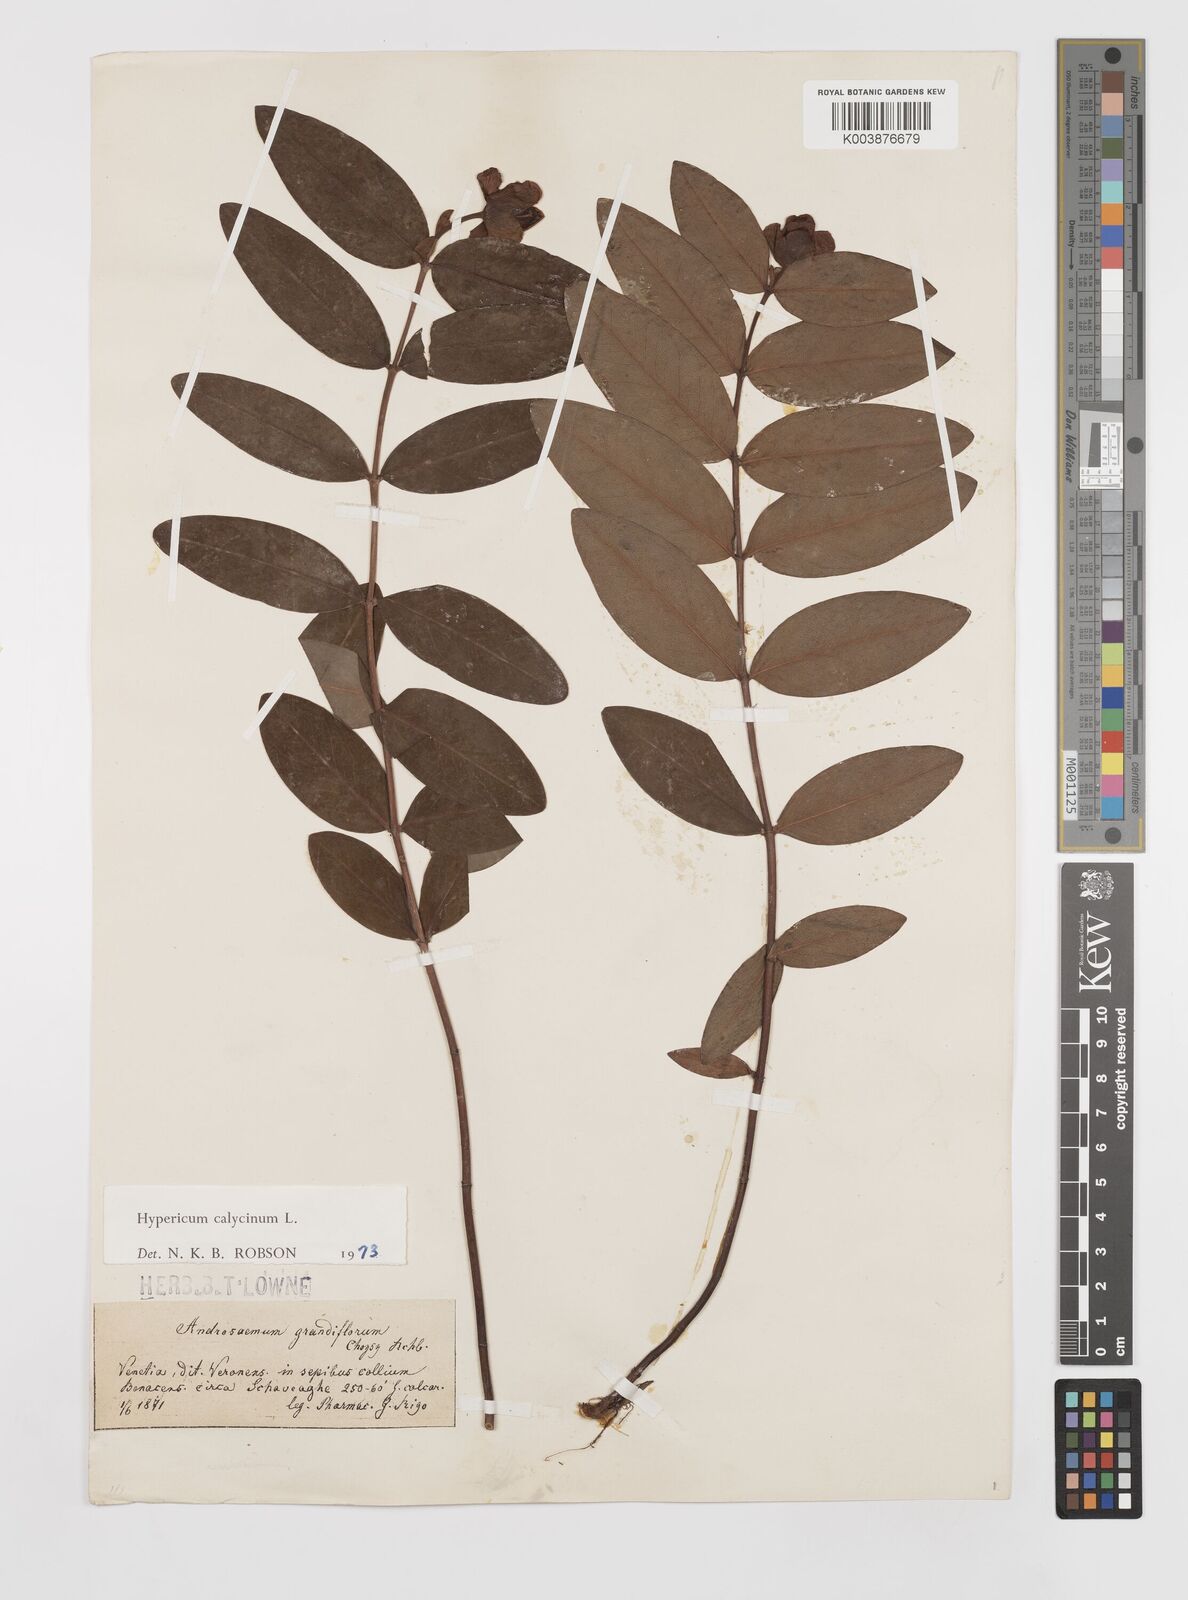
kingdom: Plantae
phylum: Tracheophyta
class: Magnoliopsida
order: Malpighiales
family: Hypericaceae
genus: Hypericum
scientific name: Hypericum calycinum
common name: Rose-of-sharon
